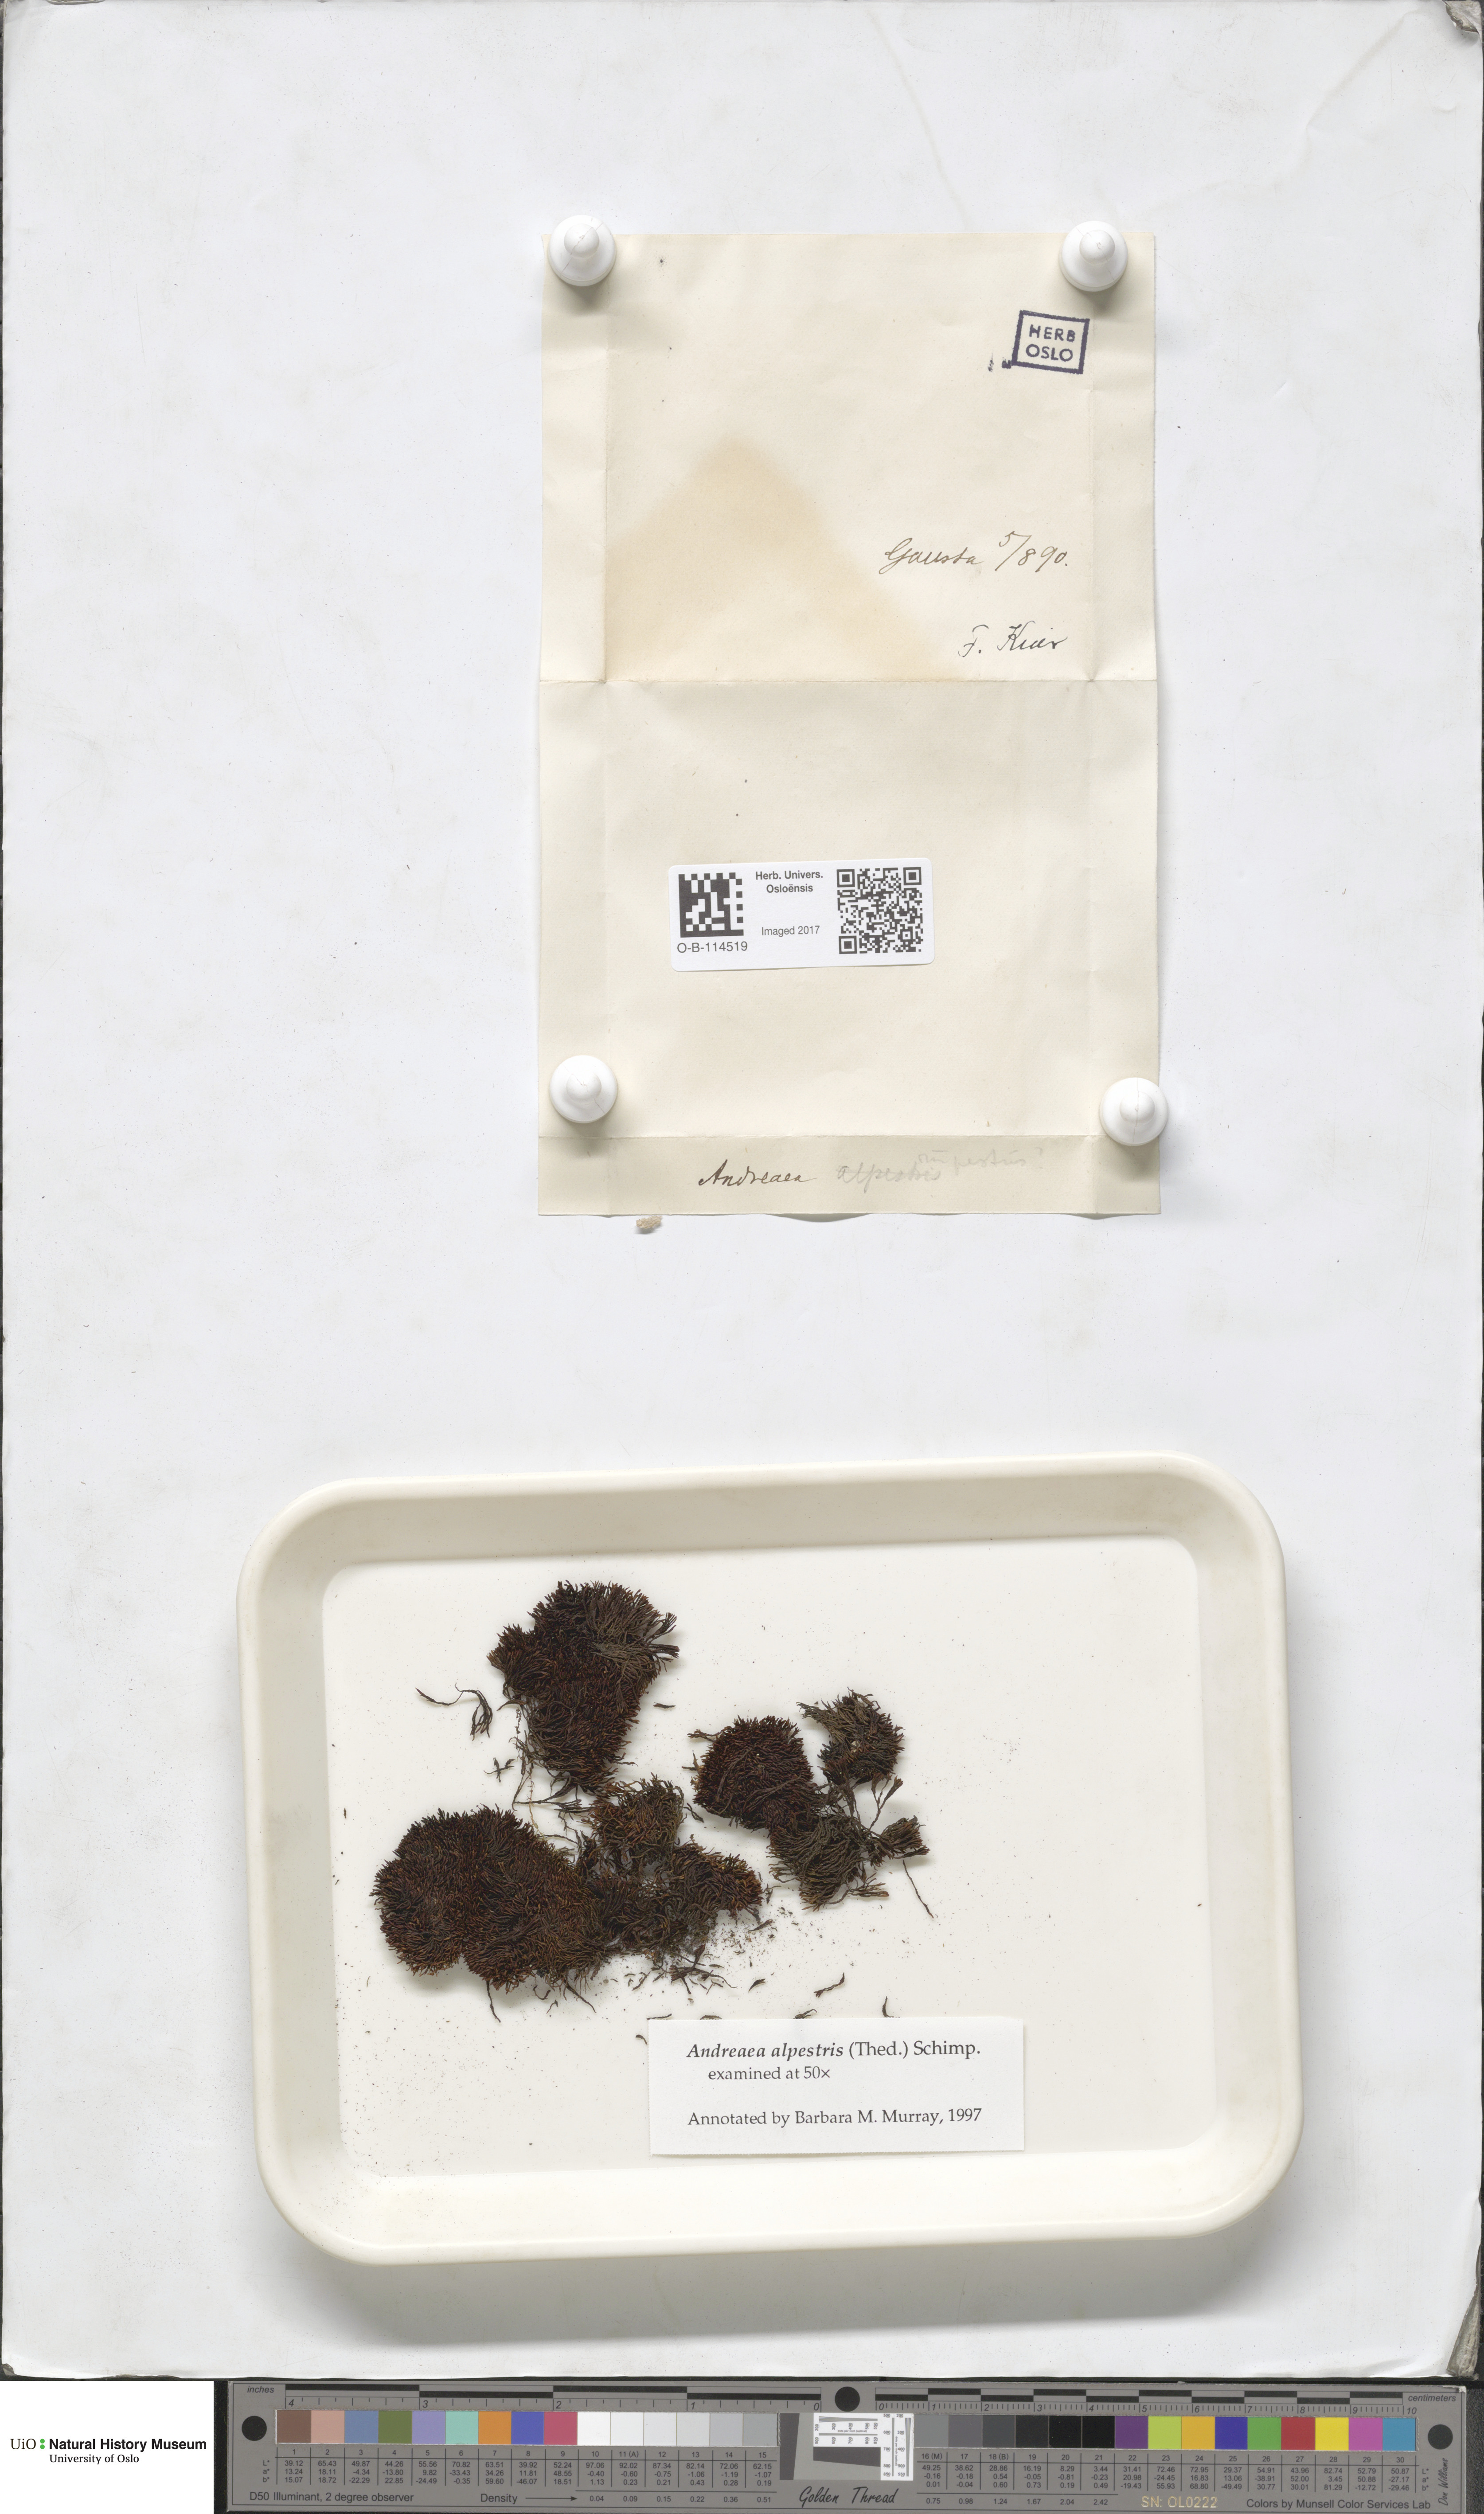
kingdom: Plantae
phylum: Bryophyta
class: Andreaeopsida
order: Andreaeales
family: Andreaeaceae
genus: Andreaea
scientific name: Andreaea alpestris
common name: Slender rock-moss
